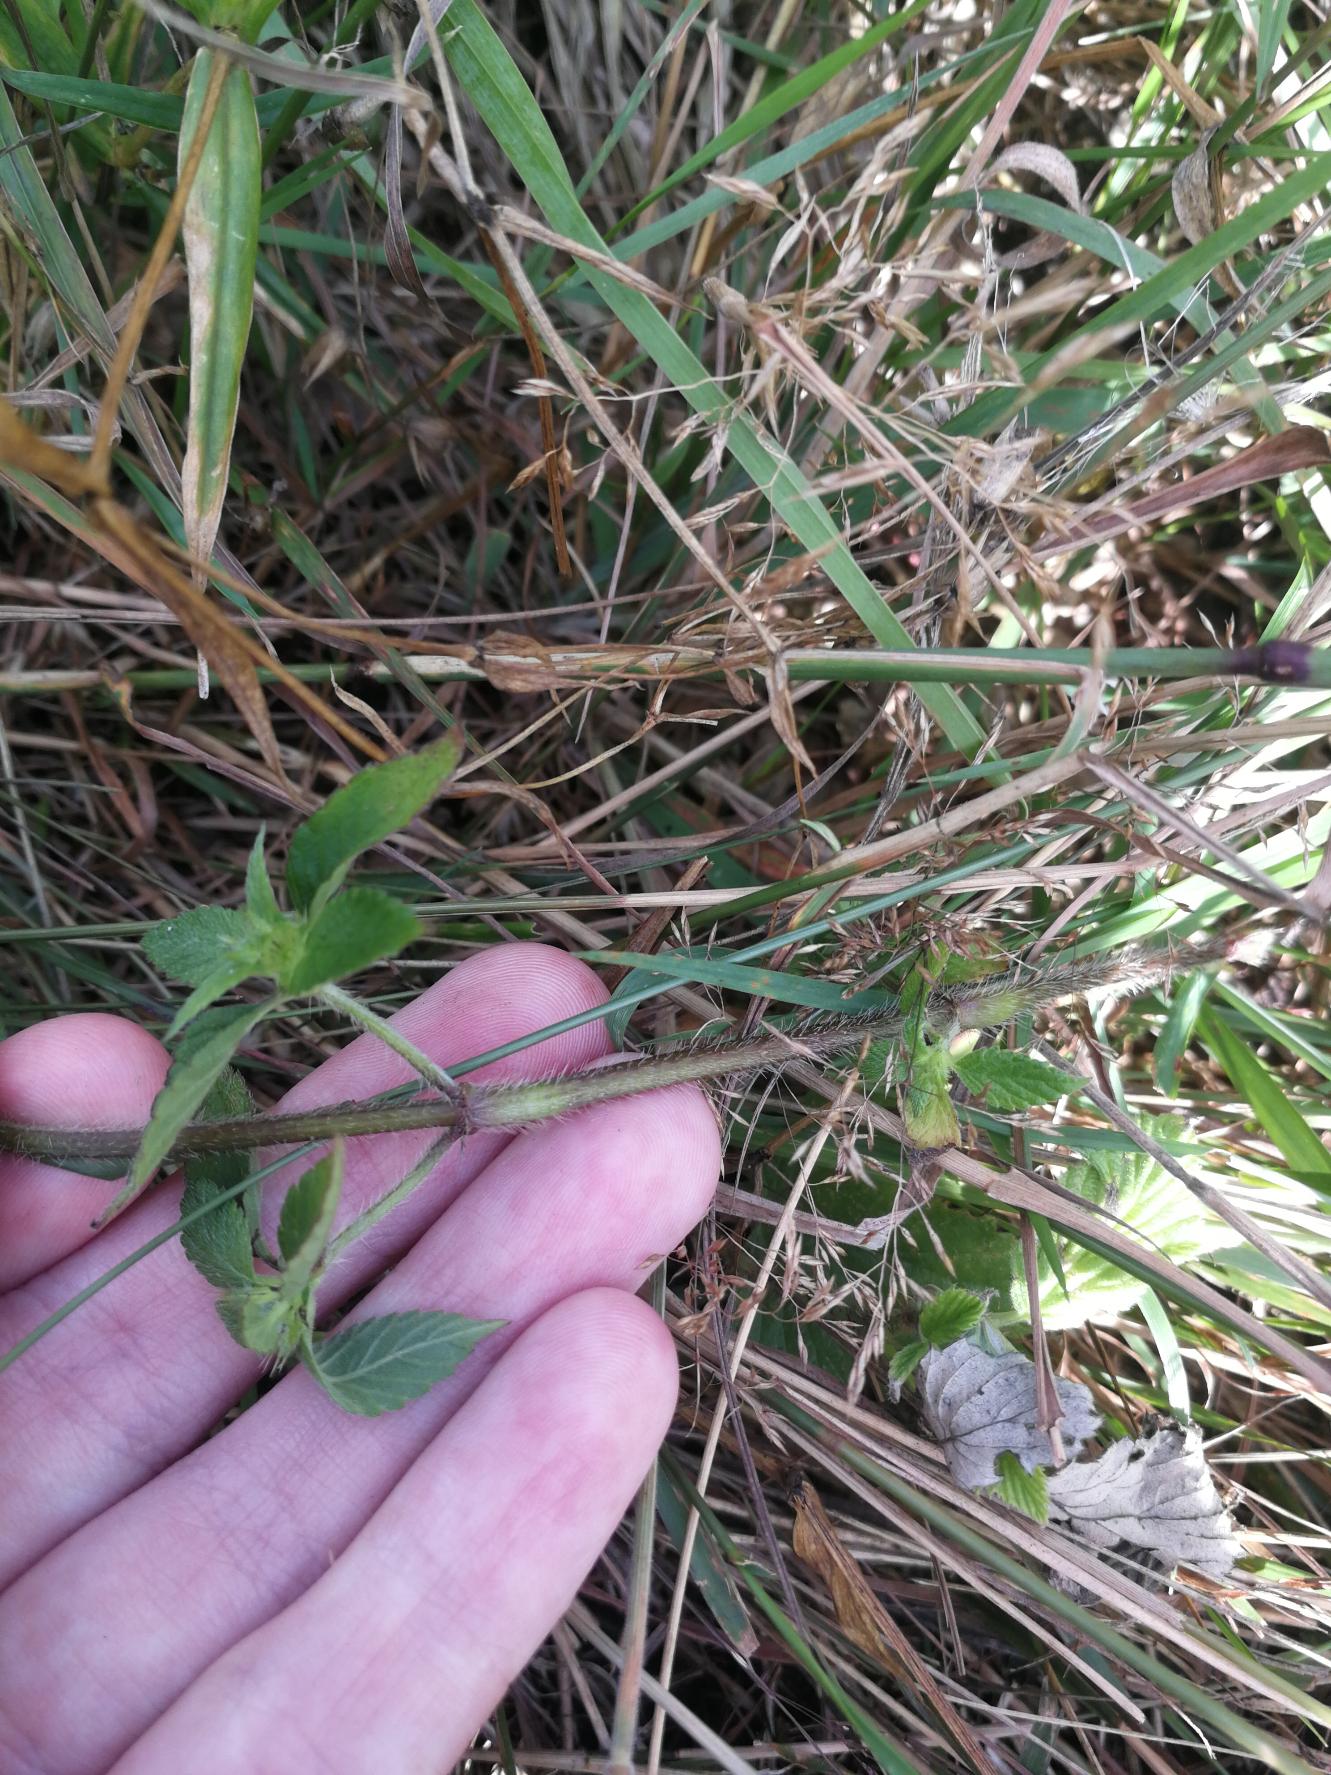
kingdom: Plantae
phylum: Tracheophyta
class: Magnoliopsida
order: Lamiales
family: Lamiaceae
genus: Galeopsis
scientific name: Galeopsis bifida
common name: Skov-hanekro
